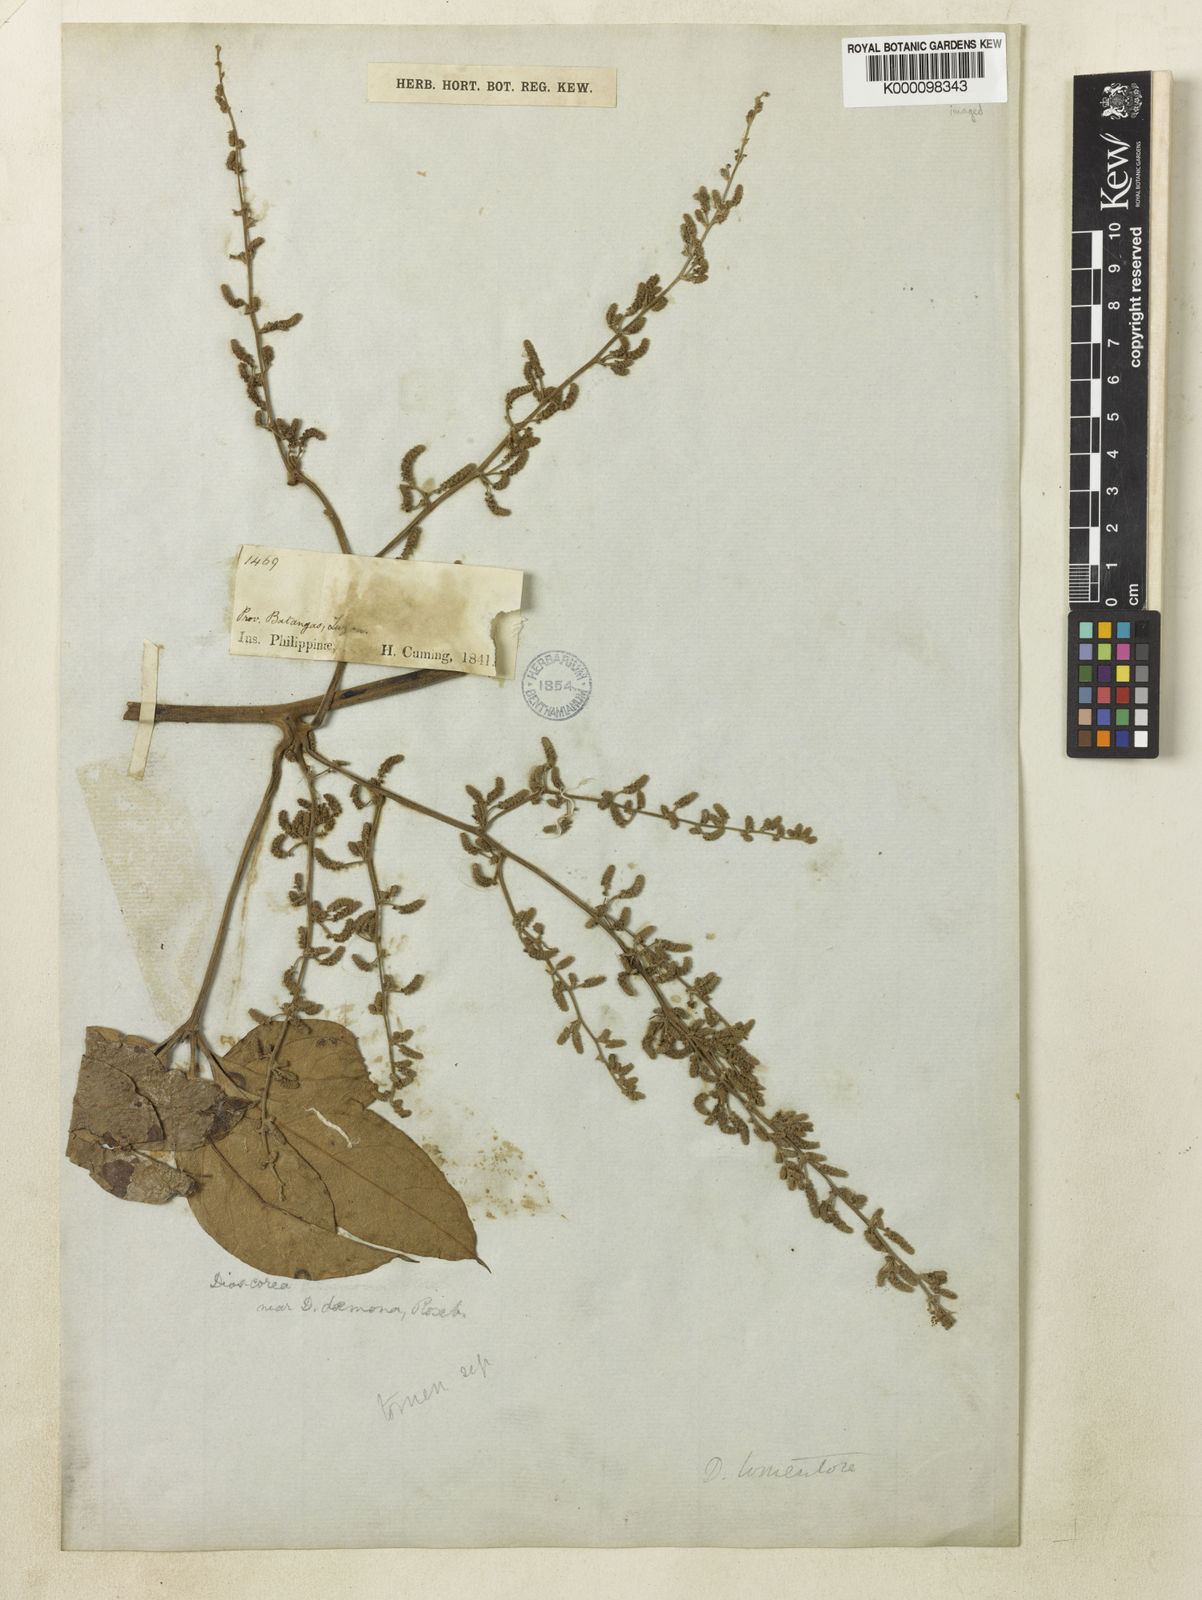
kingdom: Plantae
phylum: Tracheophyta
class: Liliopsida
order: Dioscoreales
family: Dioscoreaceae
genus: Dioscorea
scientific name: Dioscorea cumingii
